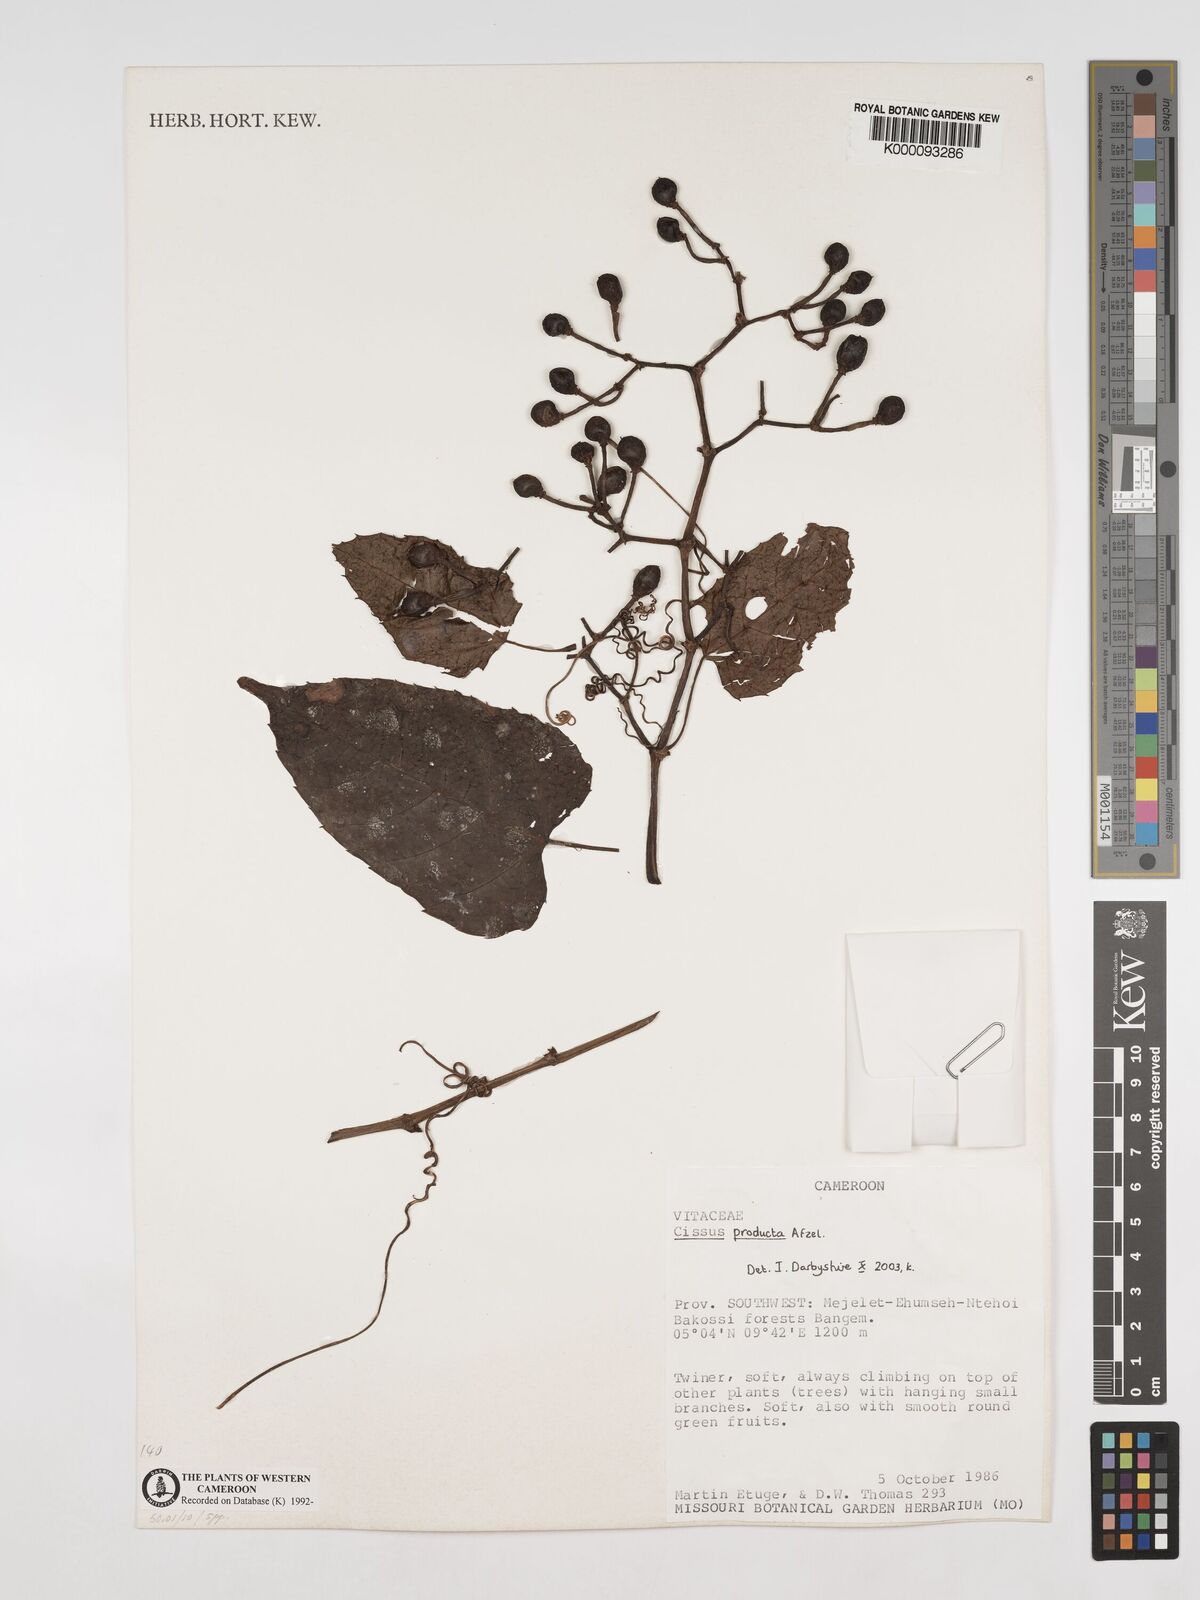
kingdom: Plantae
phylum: Tracheophyta
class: Magnoliopsida
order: Vitales
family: Vitaceae
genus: Cissus
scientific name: Cissus producta
